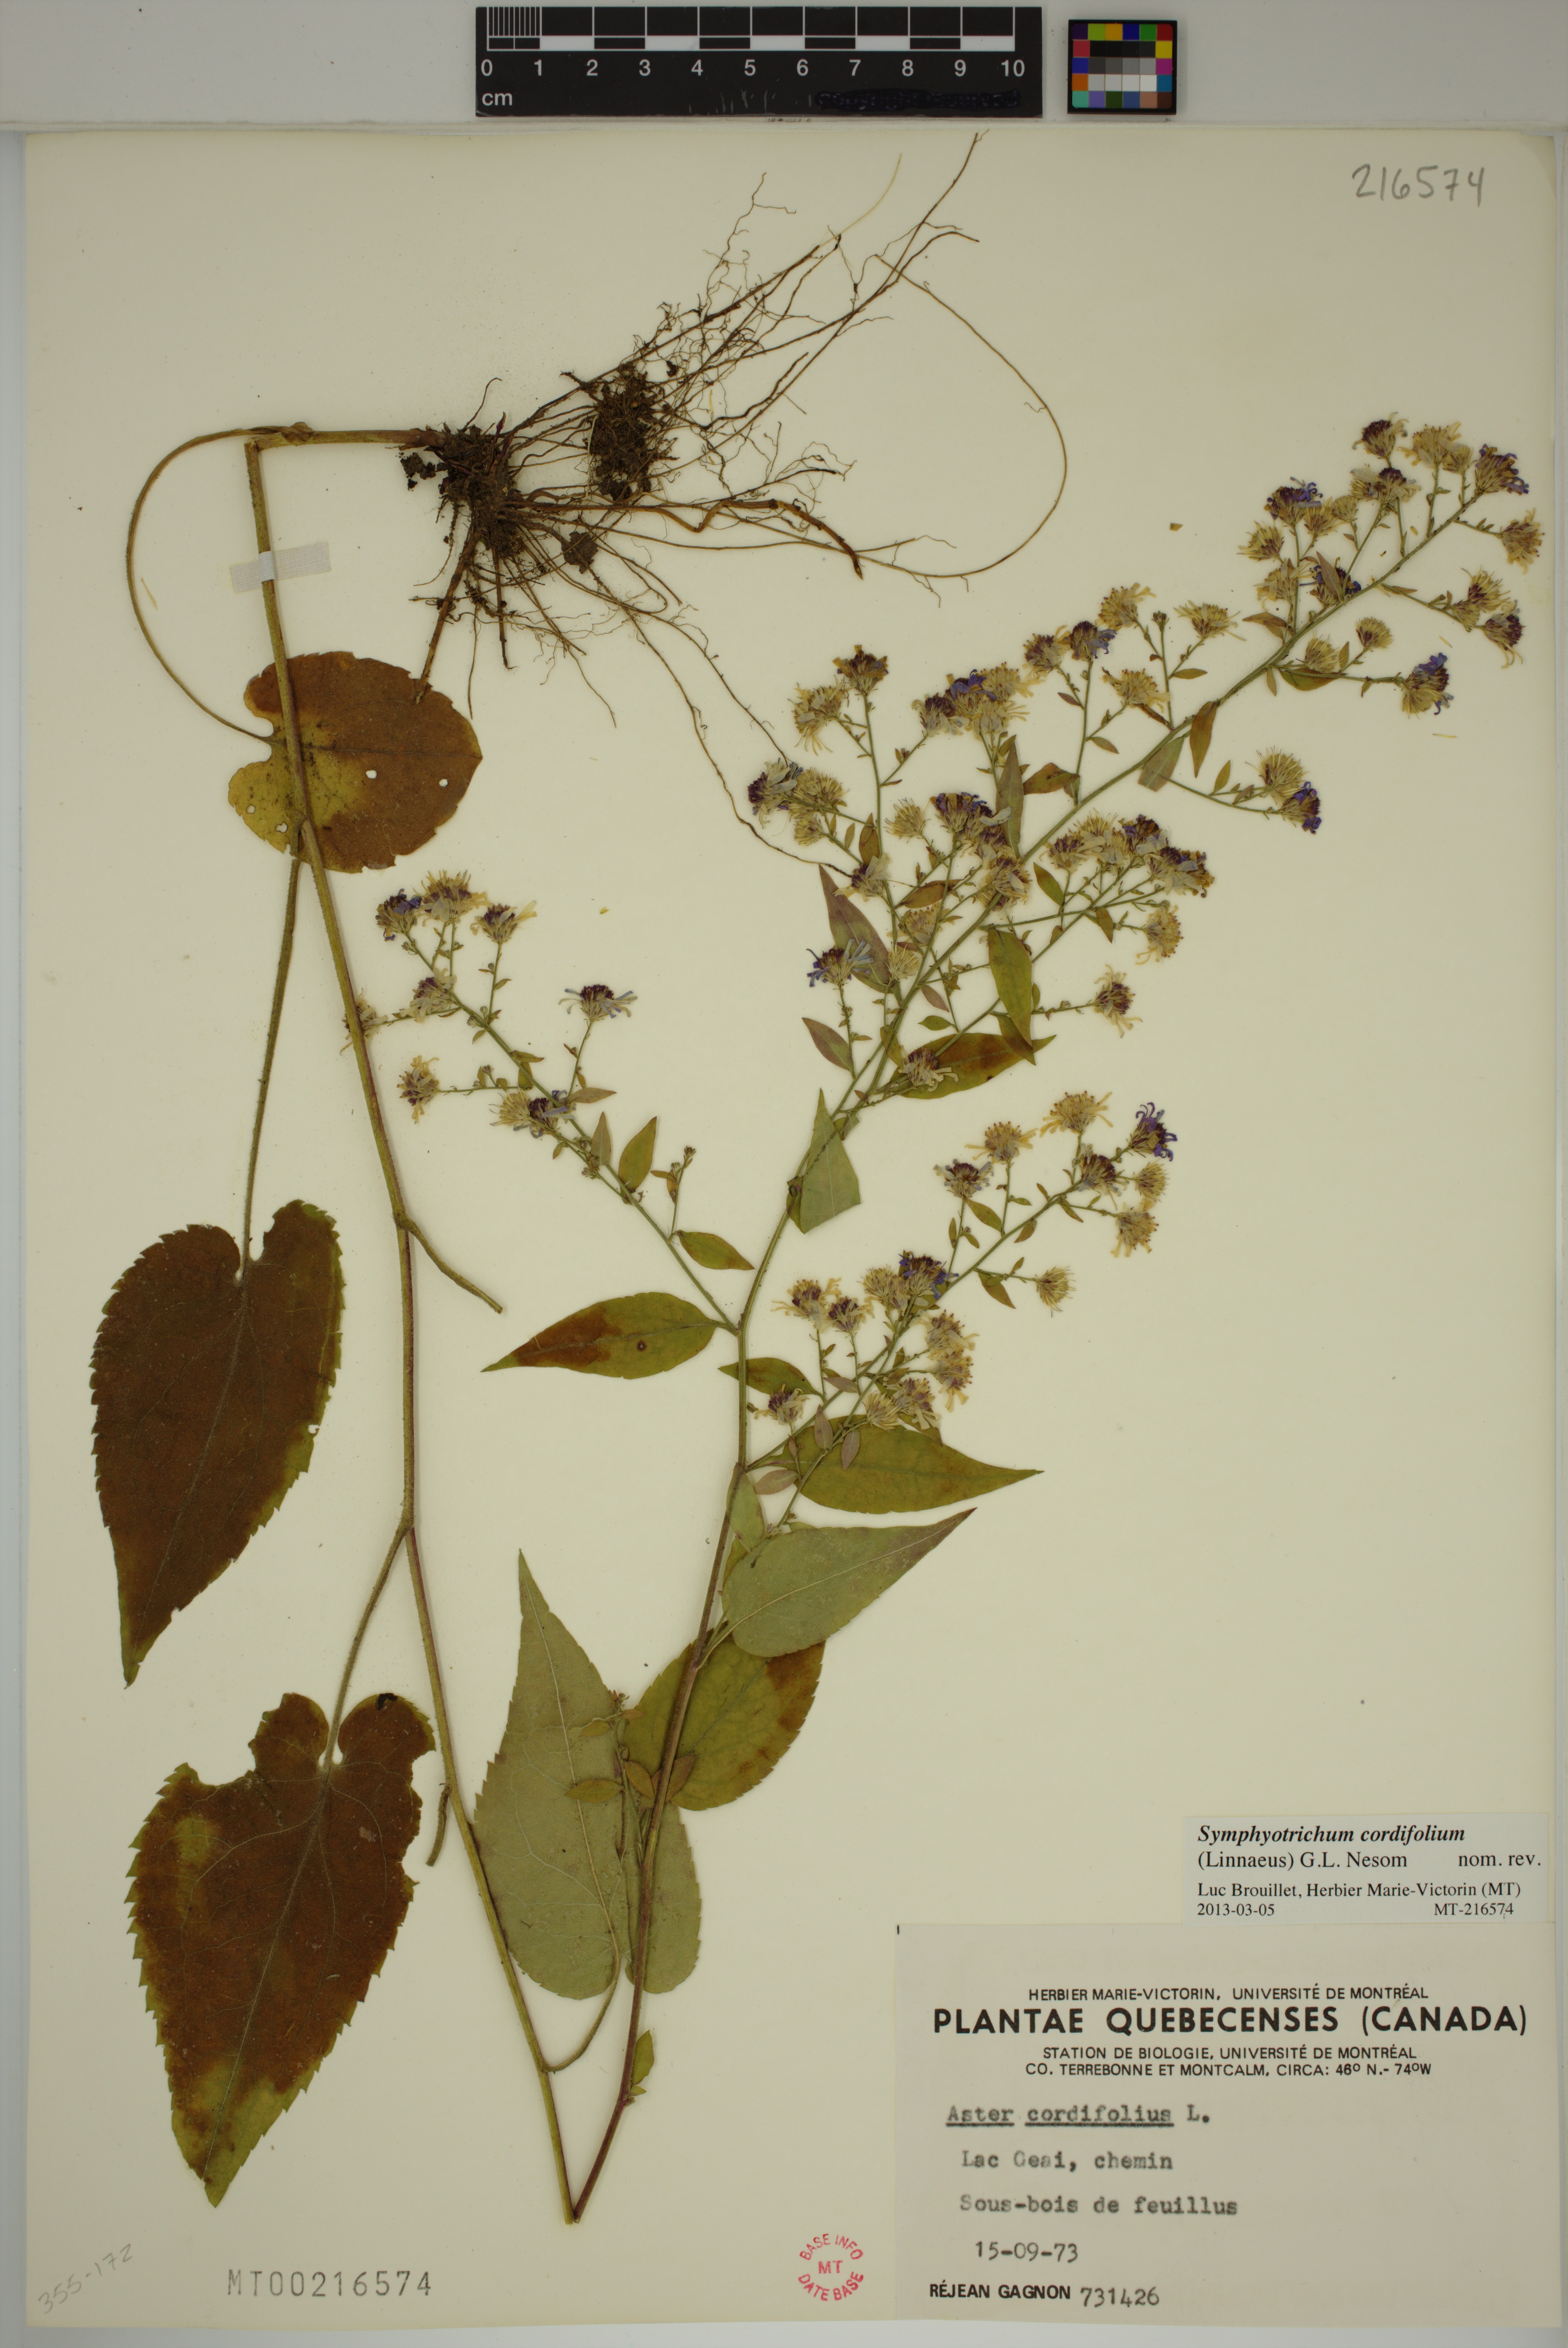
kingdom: Plantae
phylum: Tracheophyta
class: Magnoliopsida
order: Asterales
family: Asteraceae
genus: Symphyotrichum
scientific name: Symphyotrichum cordifolium
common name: Beeweed
